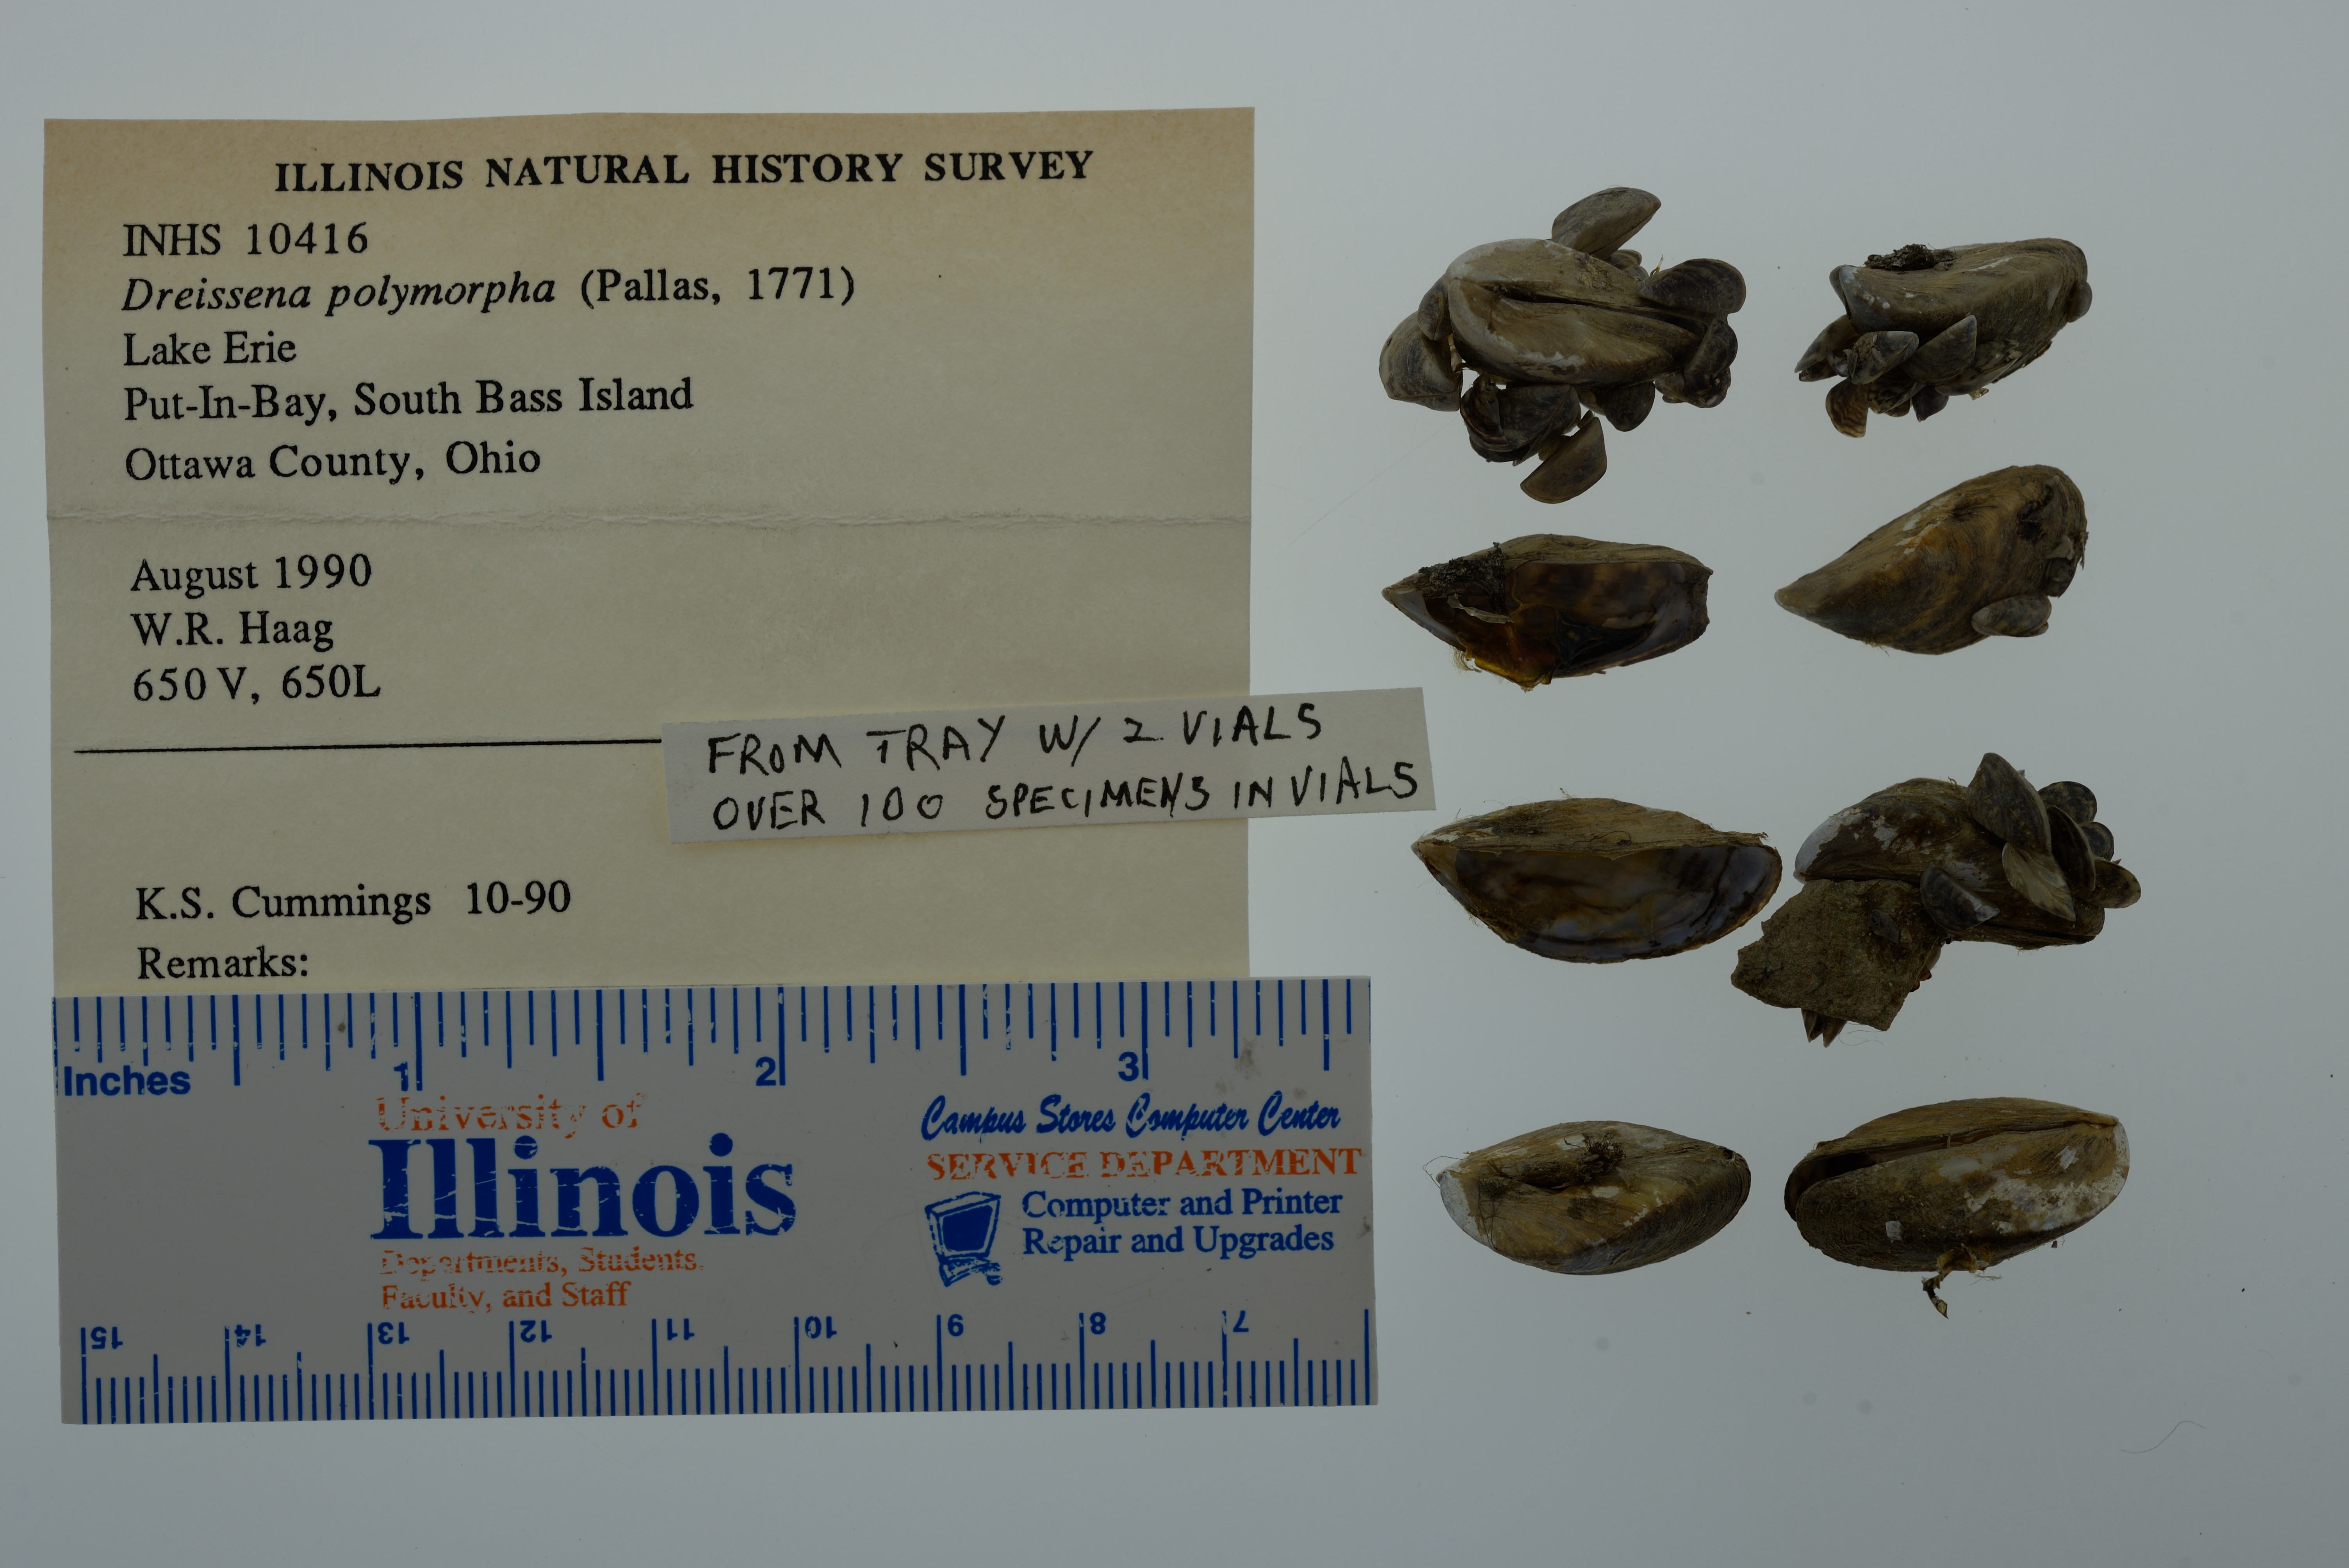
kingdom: Animalia
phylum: Mollusca
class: Bivalvia
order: Myida
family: Dreissenidae
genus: Dreissena
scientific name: Dreissena polymorpha
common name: Zebra mussel
